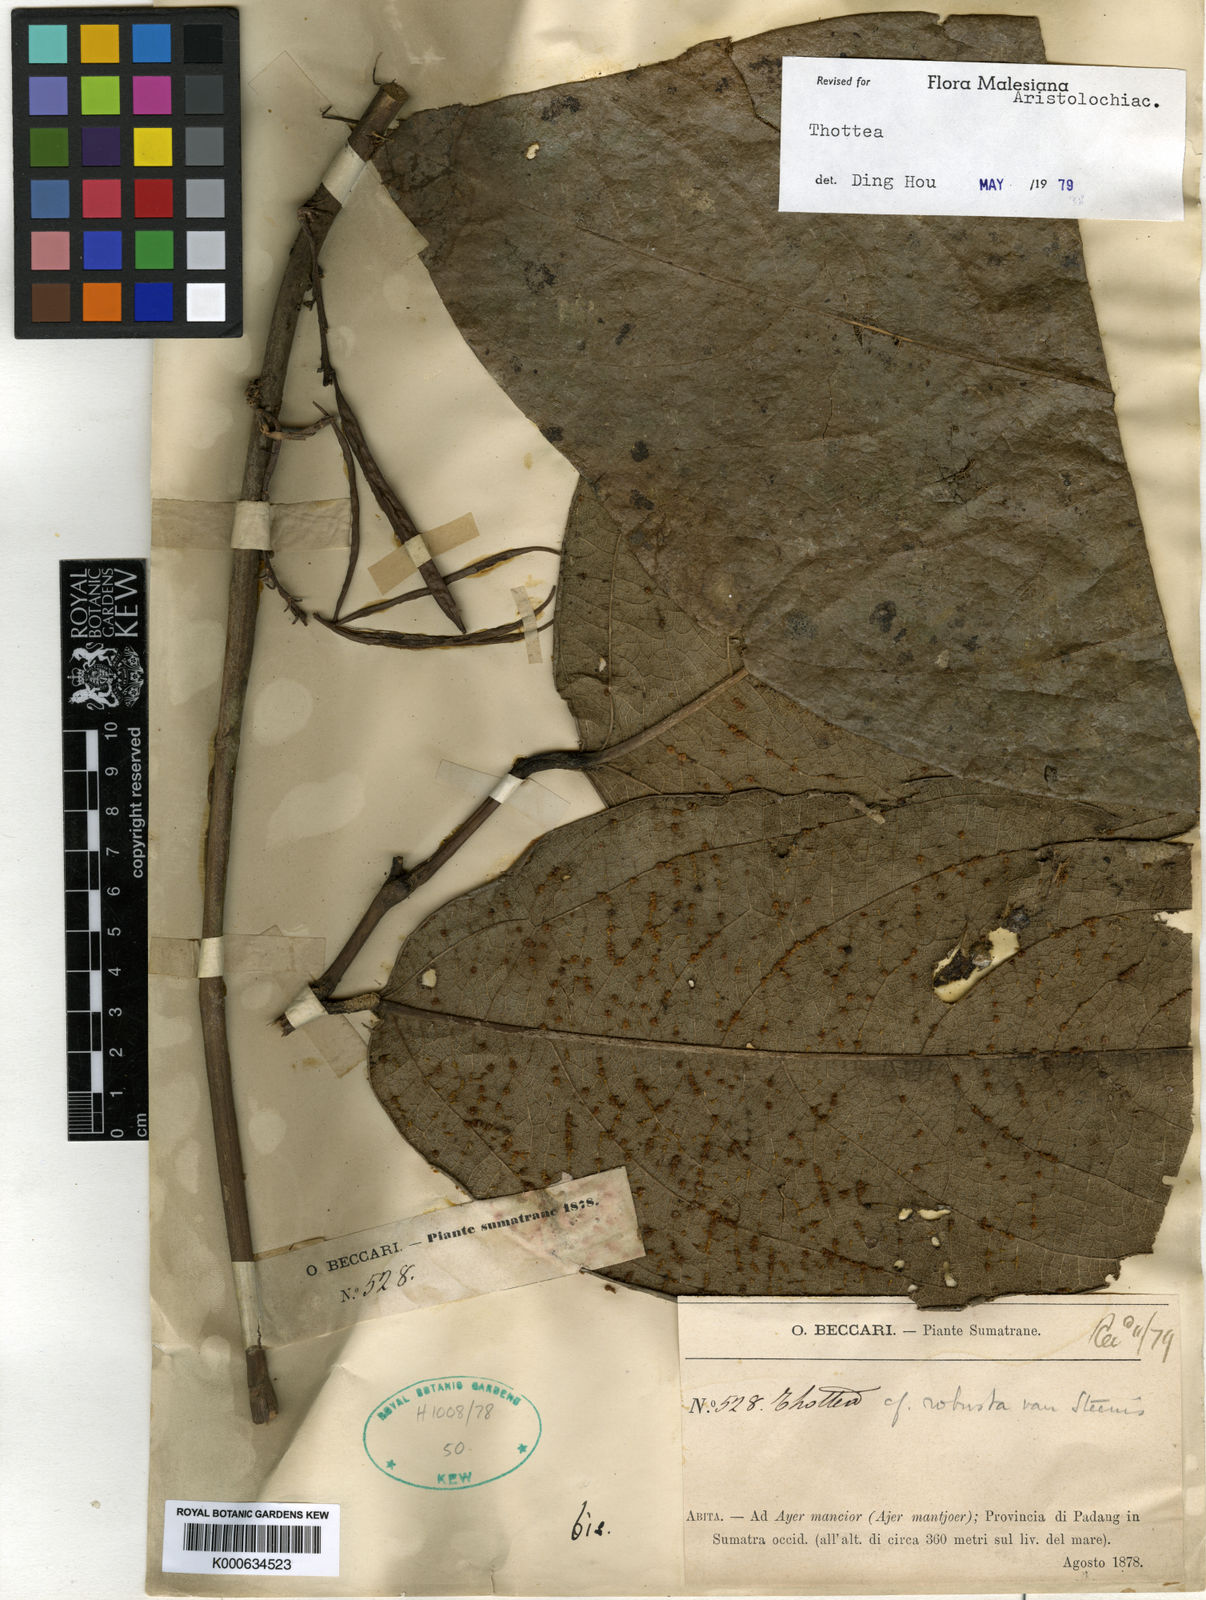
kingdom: Plantae
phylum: Tracheophyta
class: Magnoliopsida
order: Piperales
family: Aristolochiaceae
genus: Thottea
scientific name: Thottea beccarii
